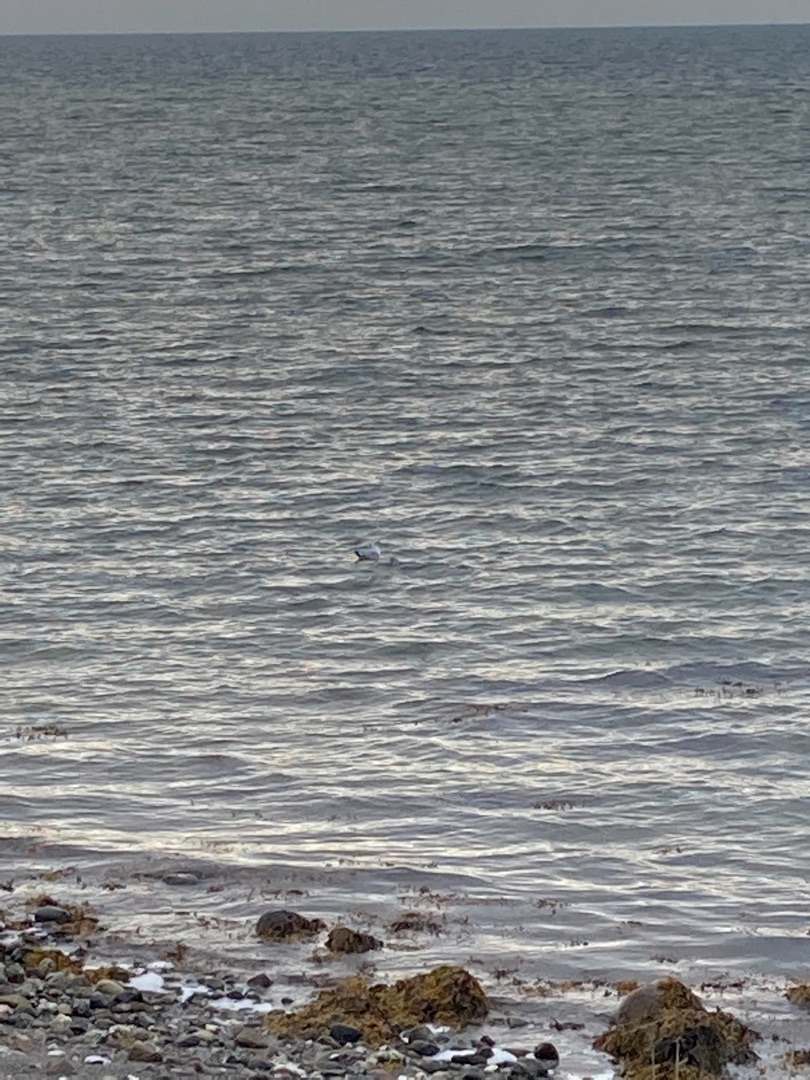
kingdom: Animalia
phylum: Chordata
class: Aves
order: Charadriiformes
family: Laridae
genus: Larus
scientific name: Larus canus
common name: Stormmåge
